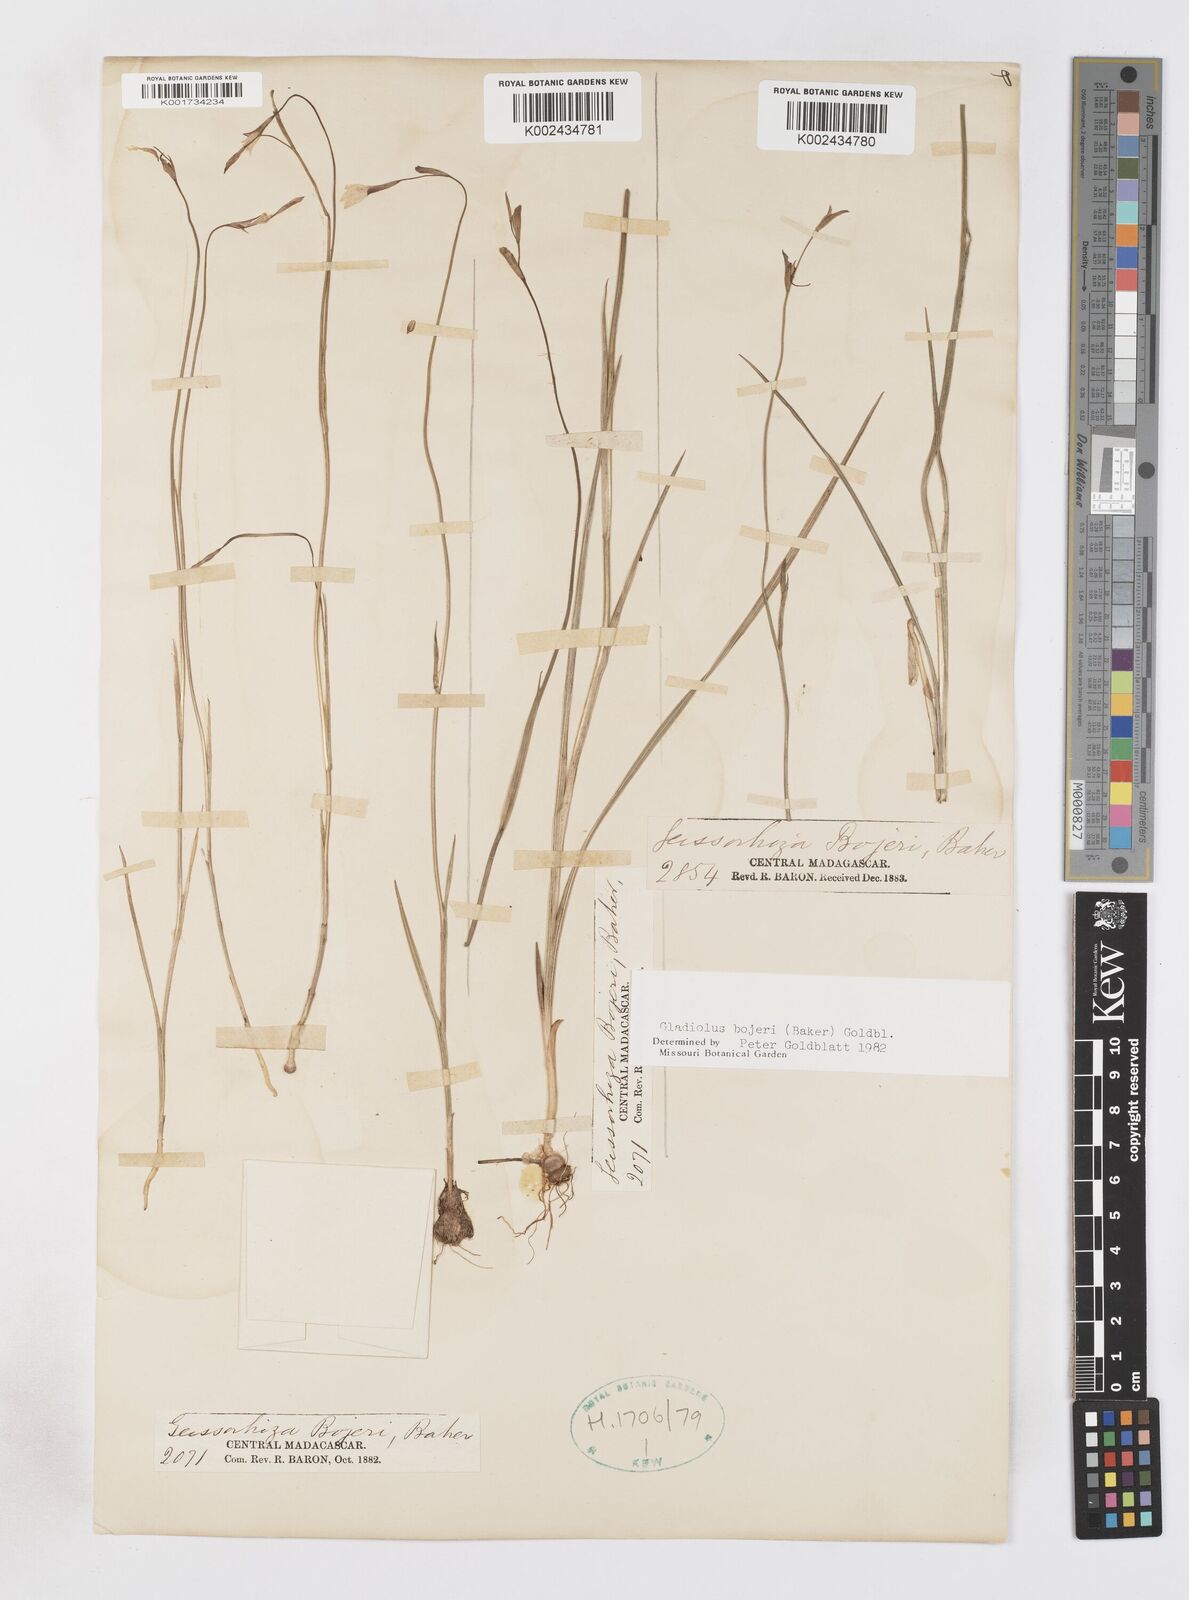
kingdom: Plantae
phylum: Tracheophyta
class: Liliopsida
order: Asparagales
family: Iridaceae
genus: Gladiolus
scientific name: Gladiolus bojeri
